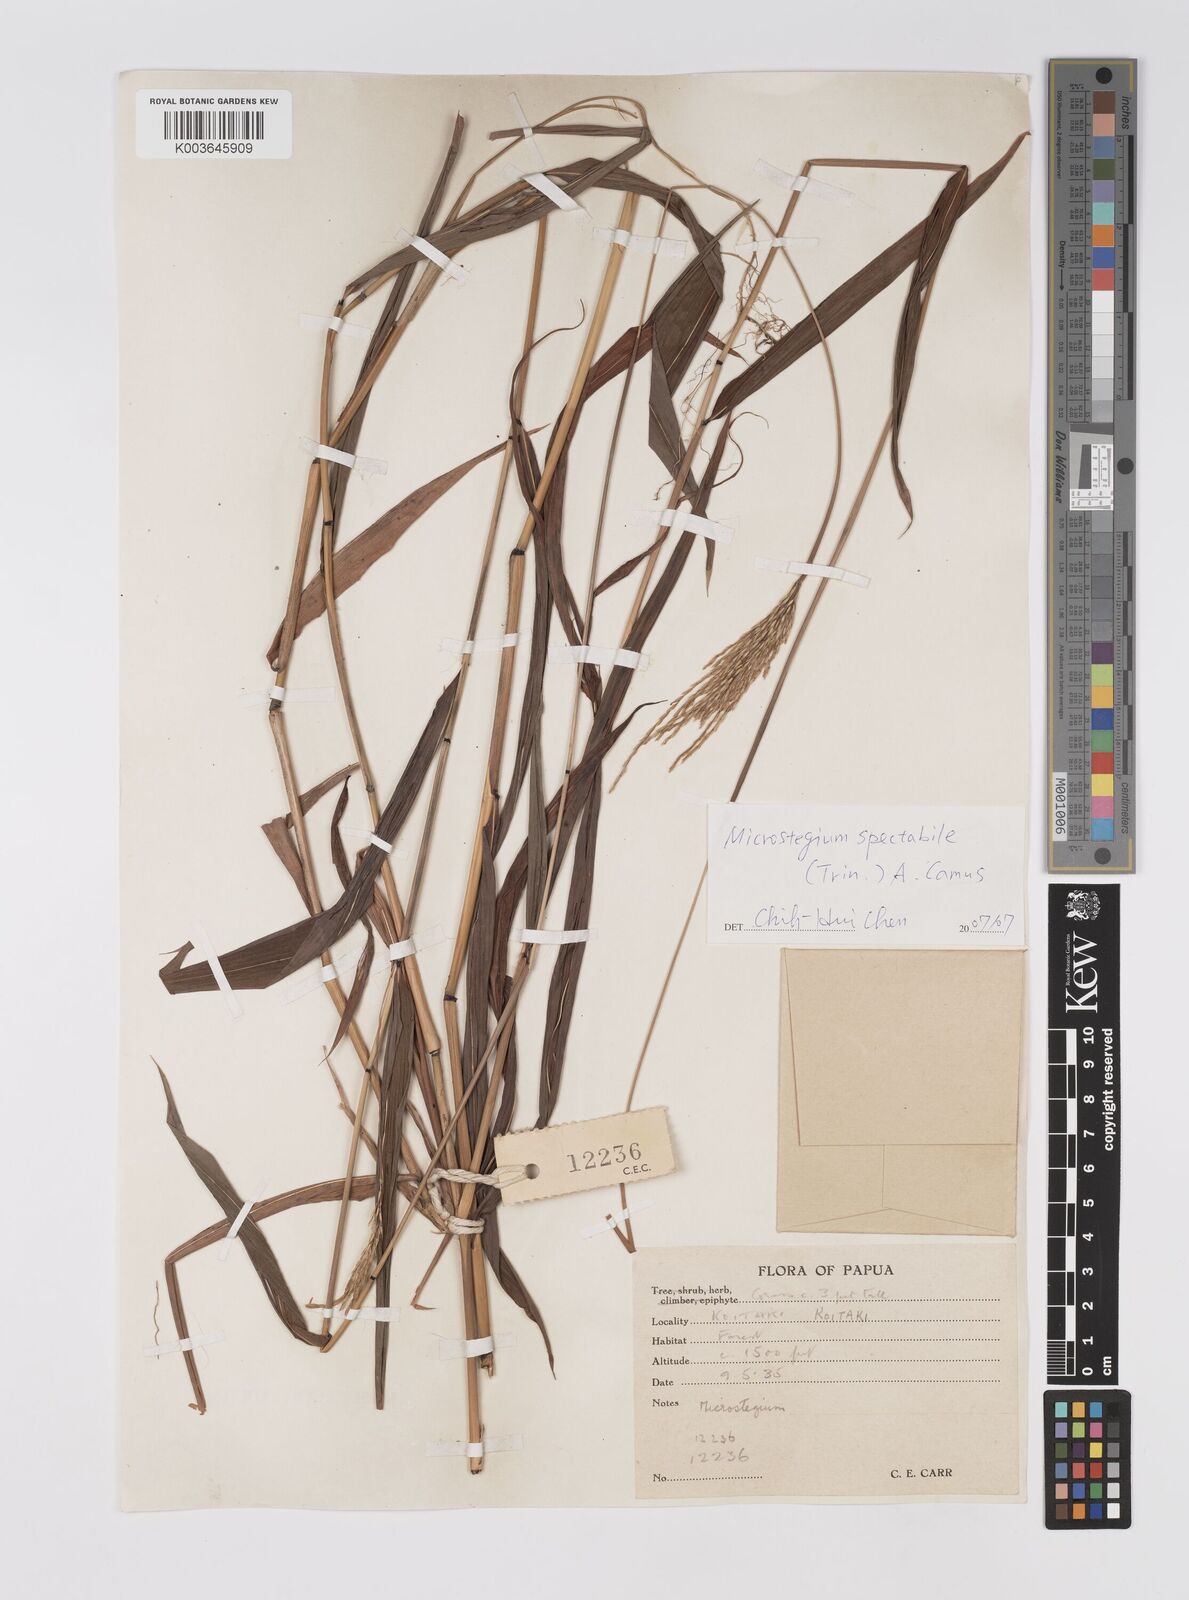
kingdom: Plantae
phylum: Tracheophyta
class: Liliopsida
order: Poales
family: Poaceae
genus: Microstegium
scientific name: Microstegium spectabile
